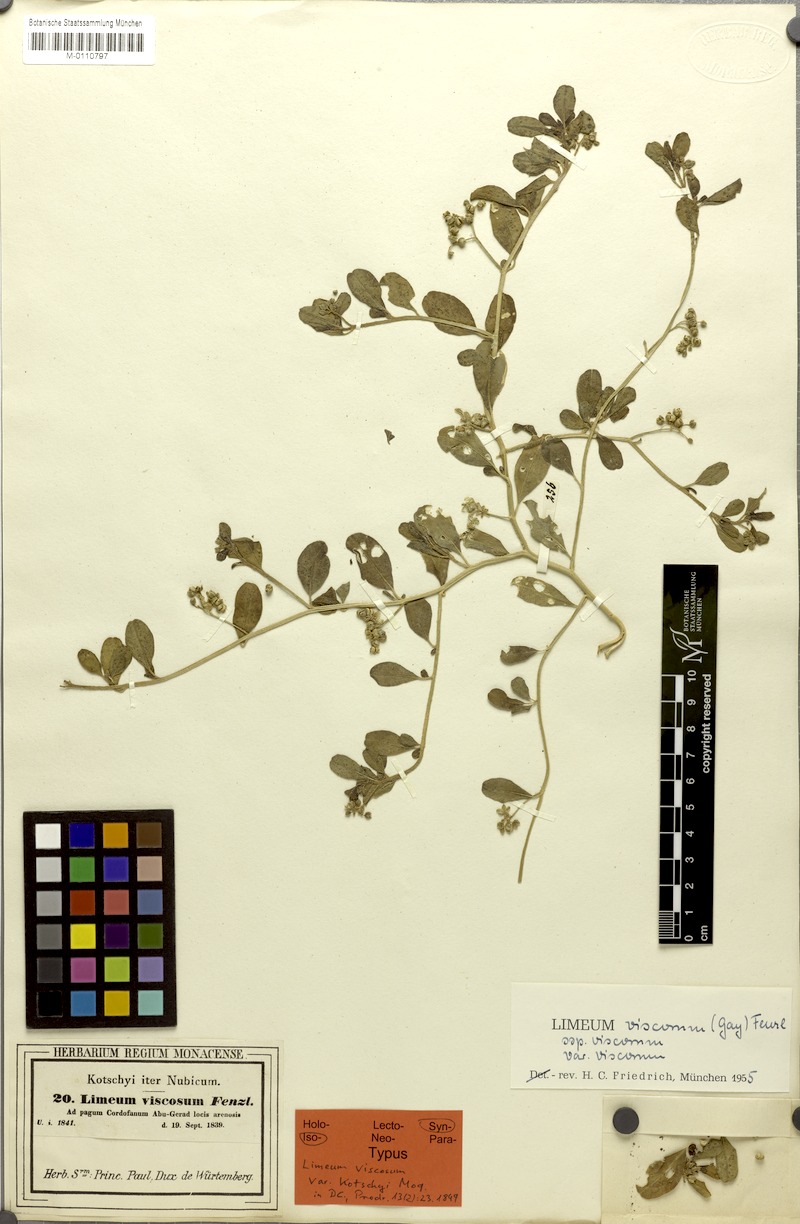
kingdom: Plantae
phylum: Tracheophyta
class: Magnoliopsida
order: Caryophyllales
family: Limeaceae
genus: Limeum
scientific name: Limeum viscosum
